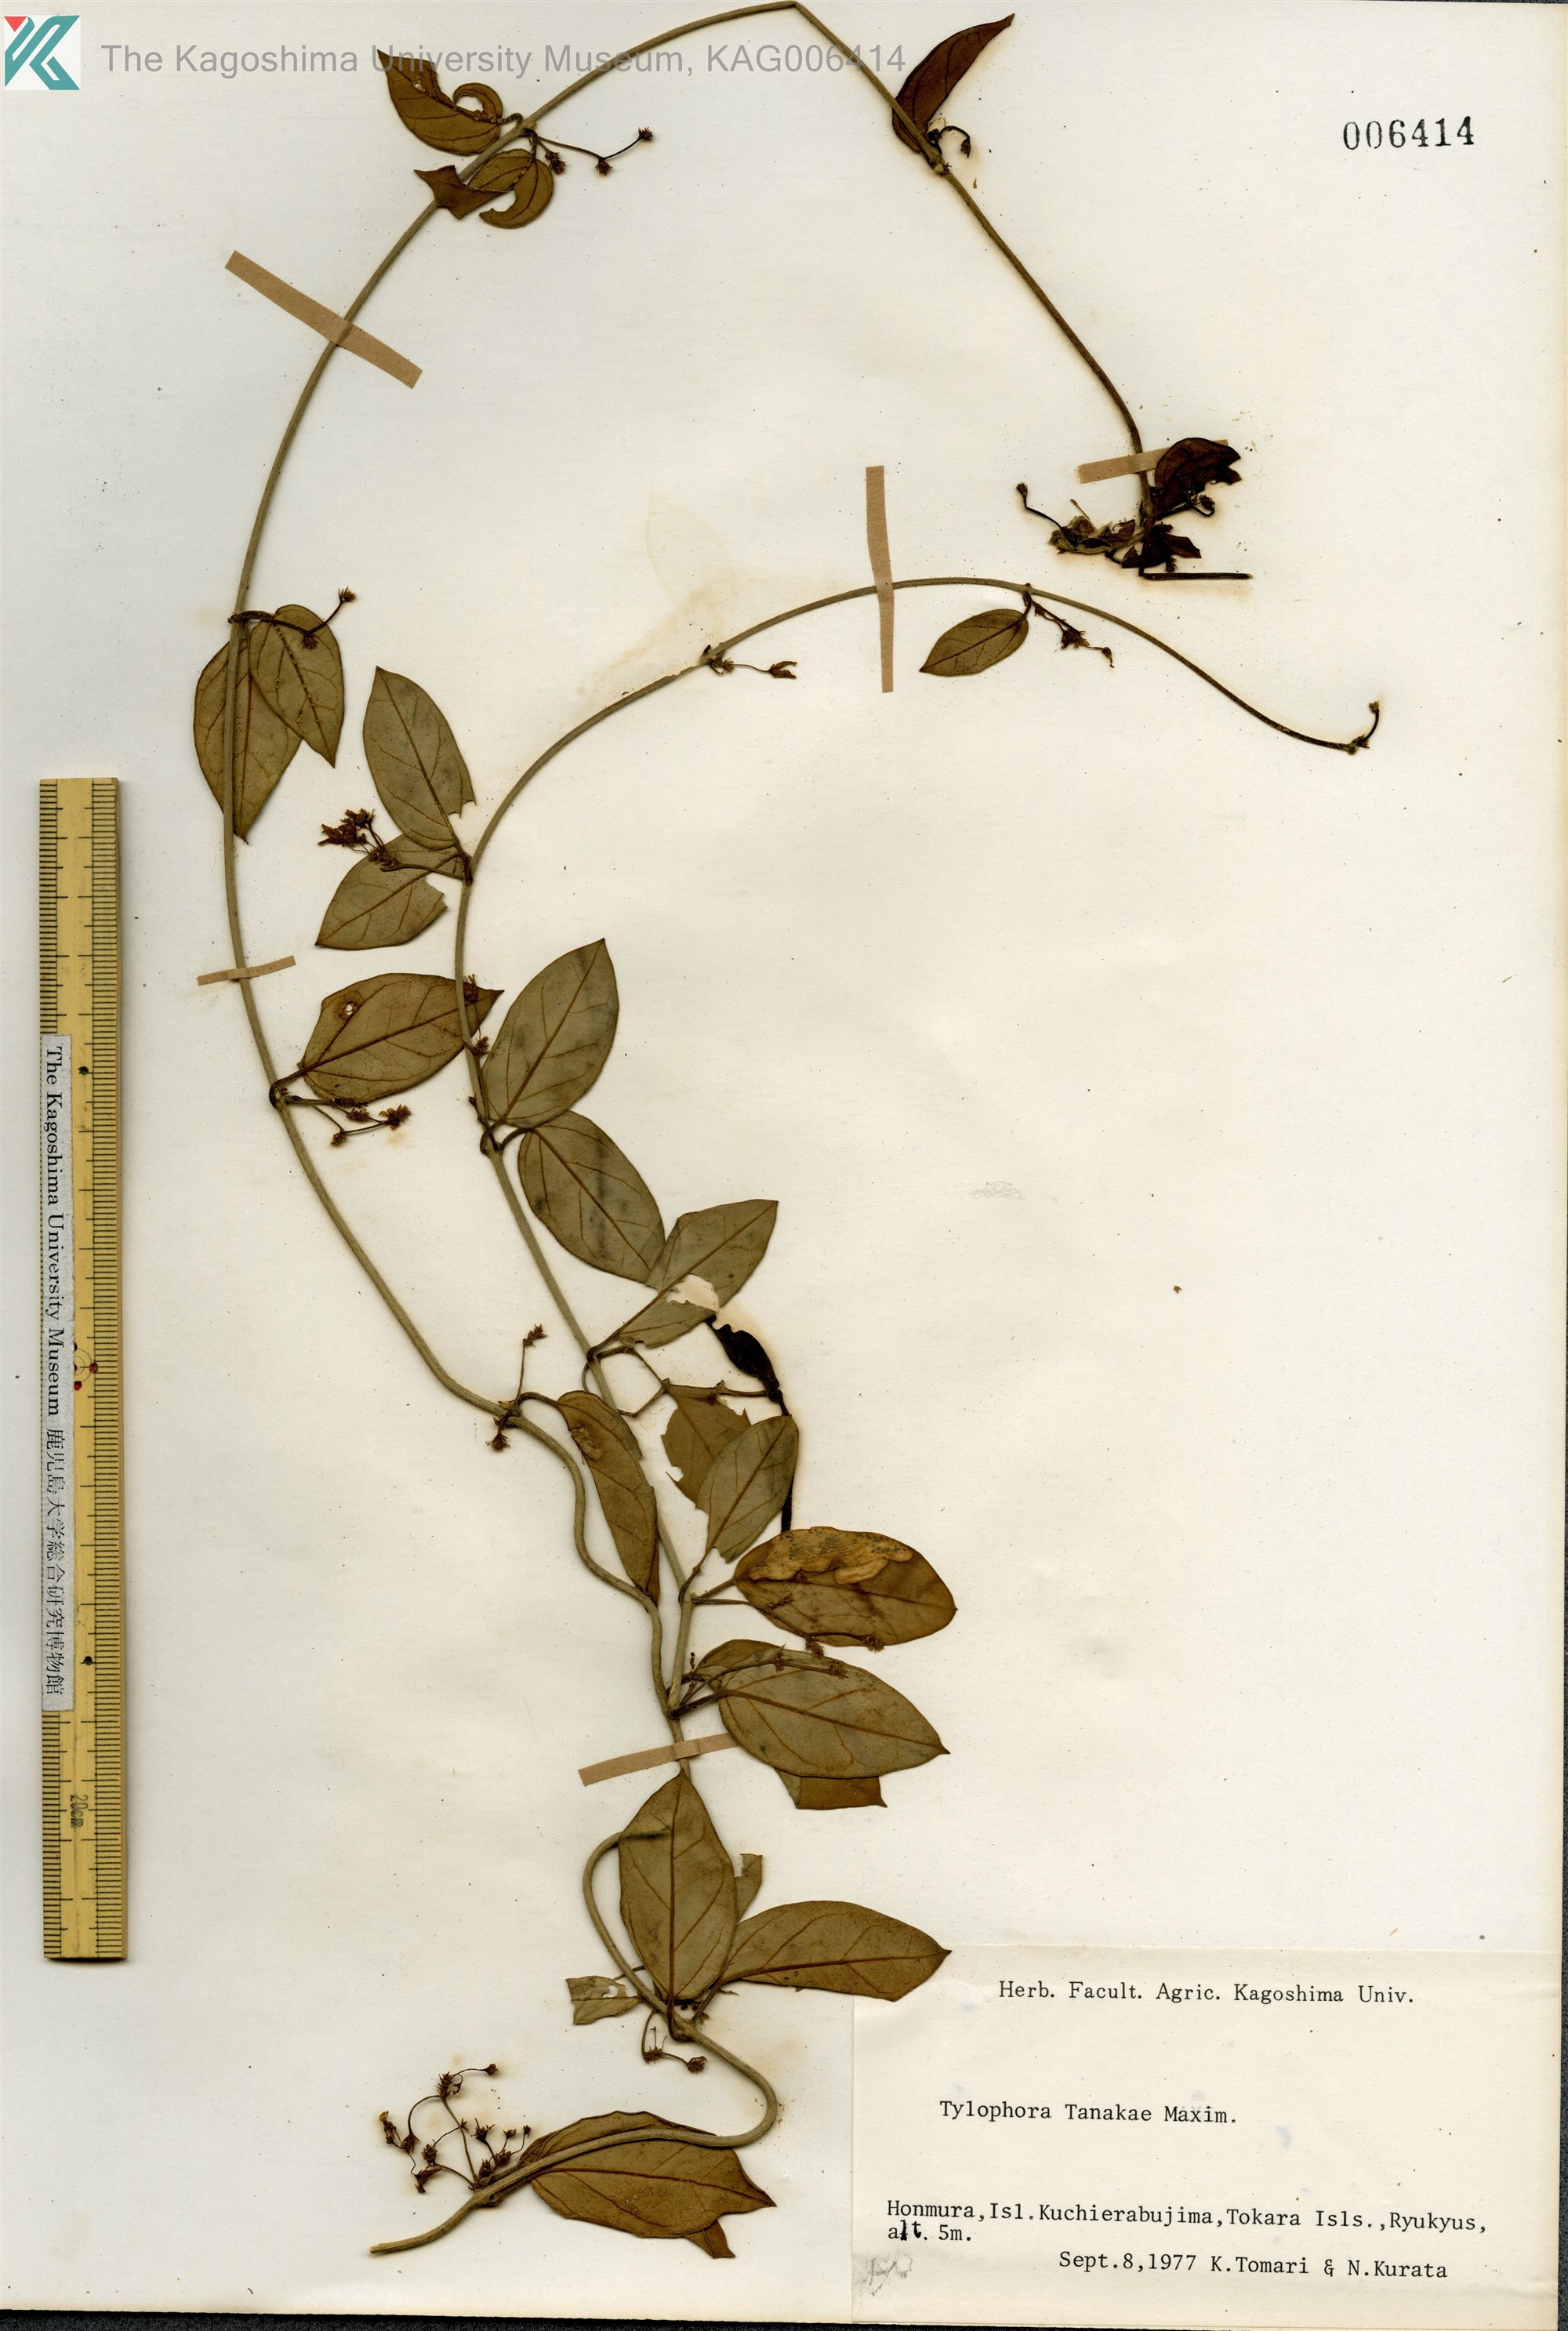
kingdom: Plantae
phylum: Tracheophyta
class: Magnoliopsida
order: Gentianales
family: Apocynaceae
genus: Vincetoxicum
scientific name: Vincetoxicum Tylophora tanakae
